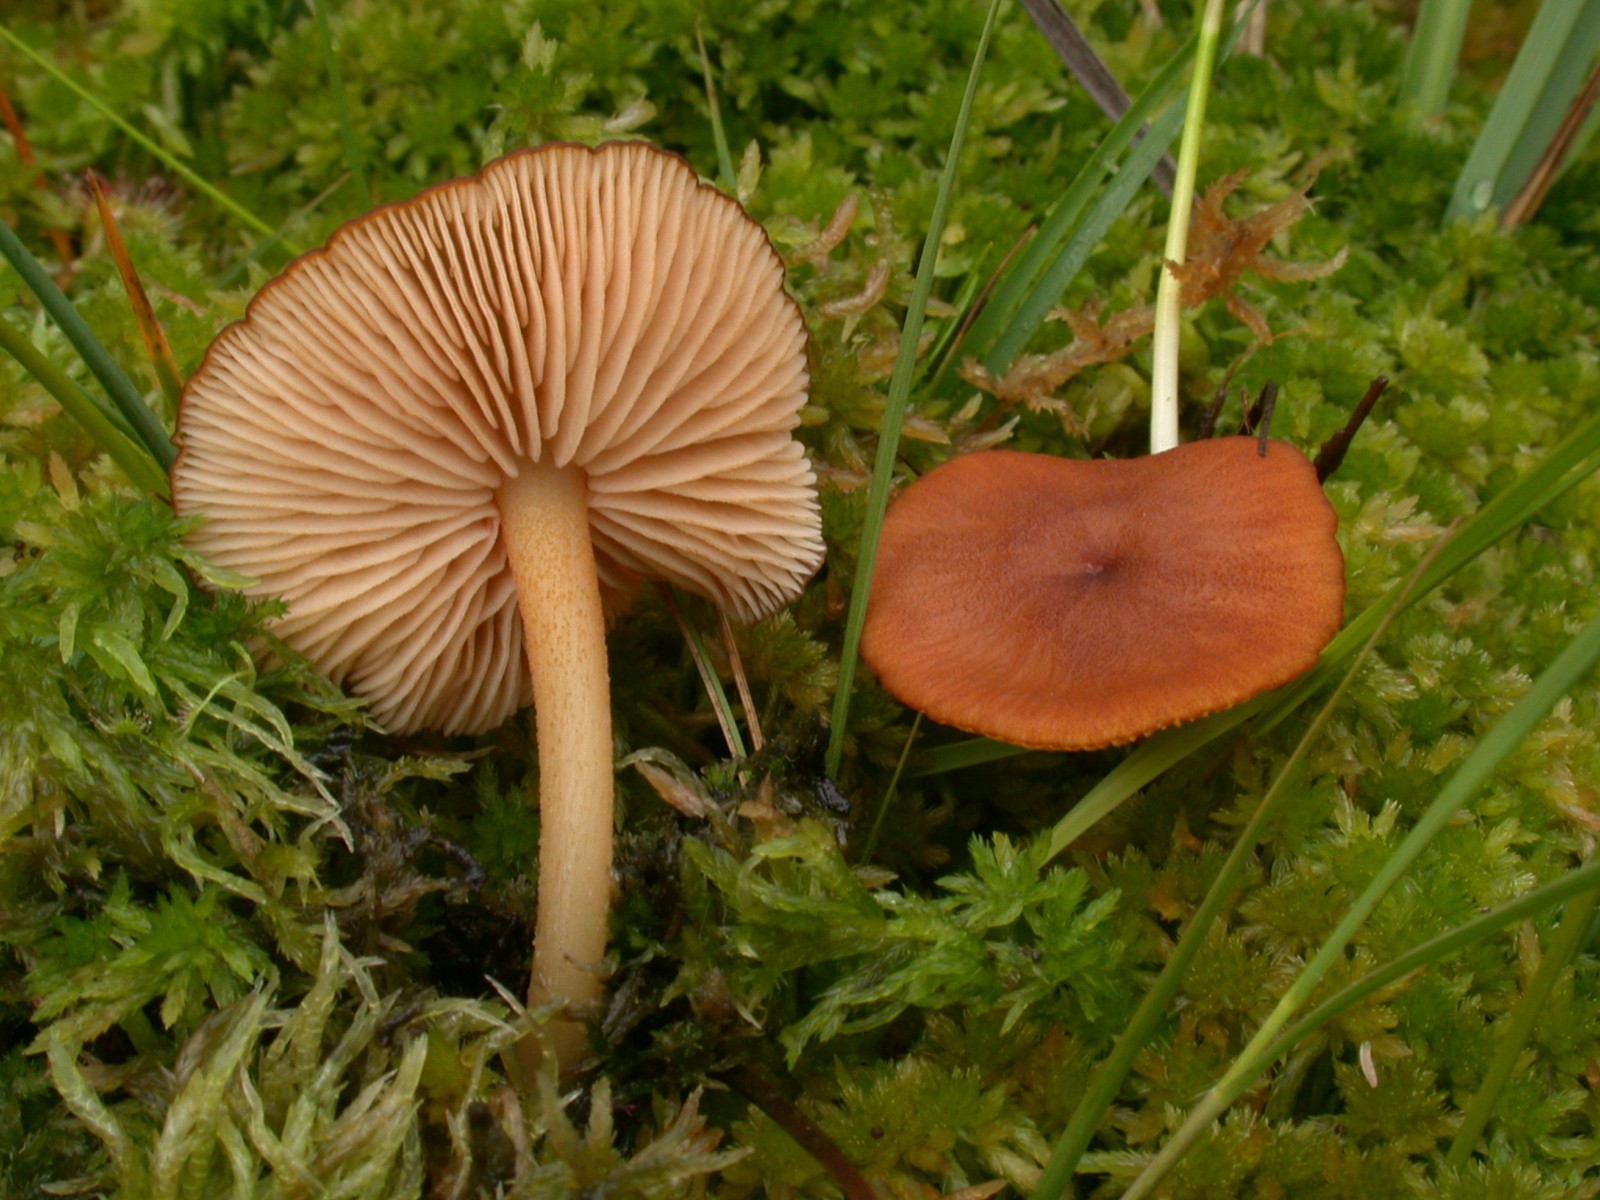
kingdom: Fungi
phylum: Basidiomycota
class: Agaricomycetes
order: Agaricales
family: Entolomataceae
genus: Entoloma
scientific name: Entoloma formosum
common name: brungul rødblad
